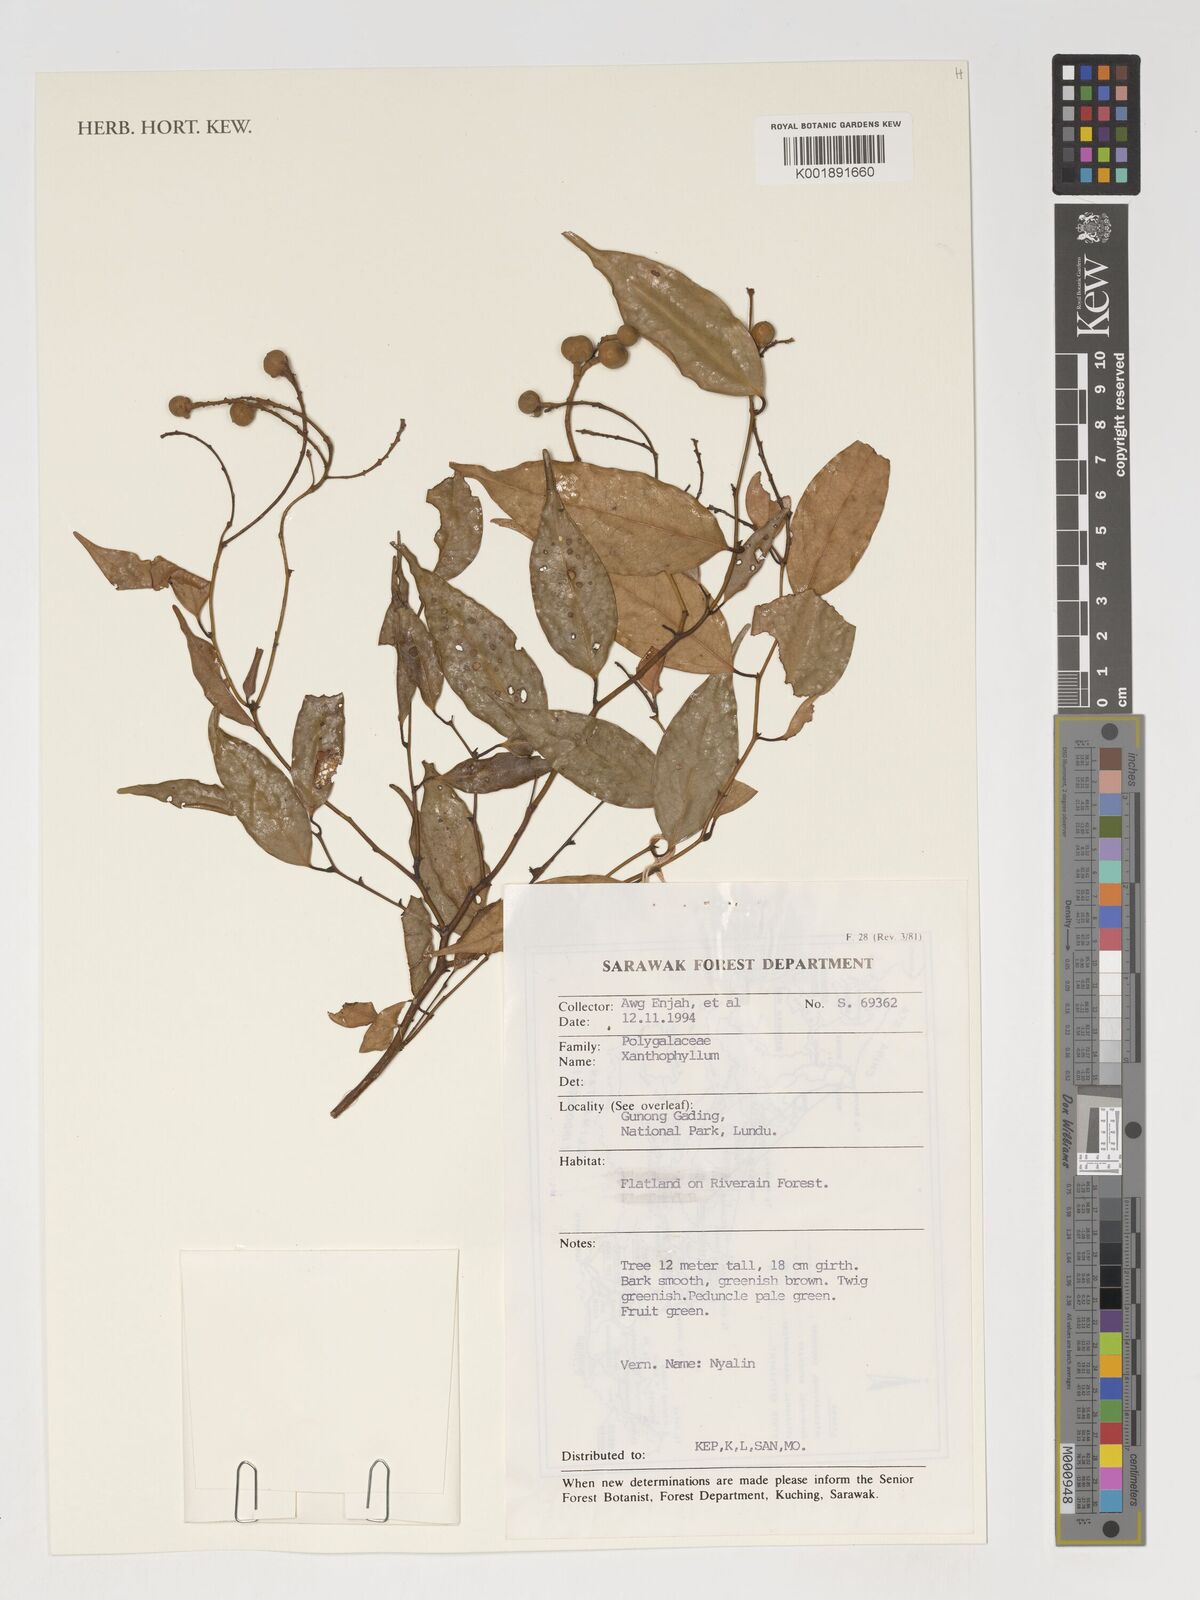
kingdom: Plantae
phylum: Tracheophyta
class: Magnoliopsida
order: Fabales
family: Polygalaceae
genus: Xanthophyllum
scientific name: Xanthophyllum
